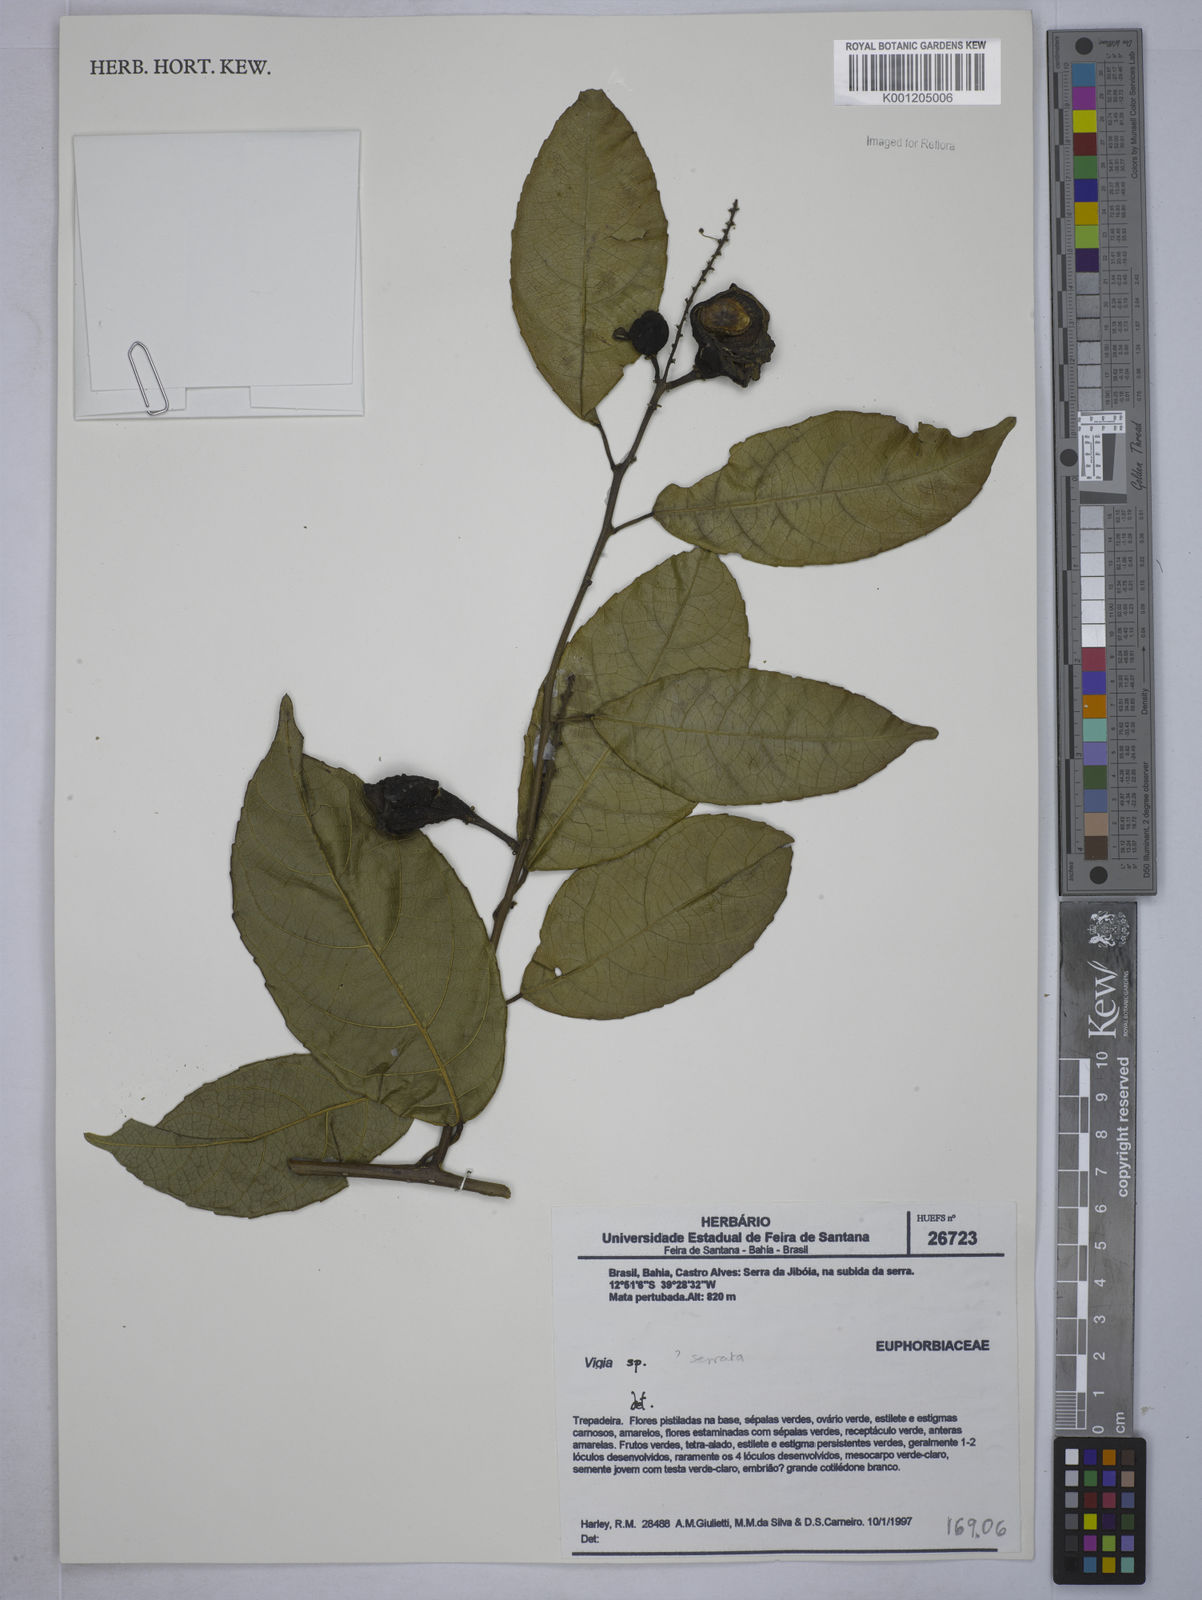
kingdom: Plantae
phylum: Tracheophyta
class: Magnoliopsida
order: Malpighiales
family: Euphorbiaceae
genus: Plukenetia
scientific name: Plukenetia serrata
